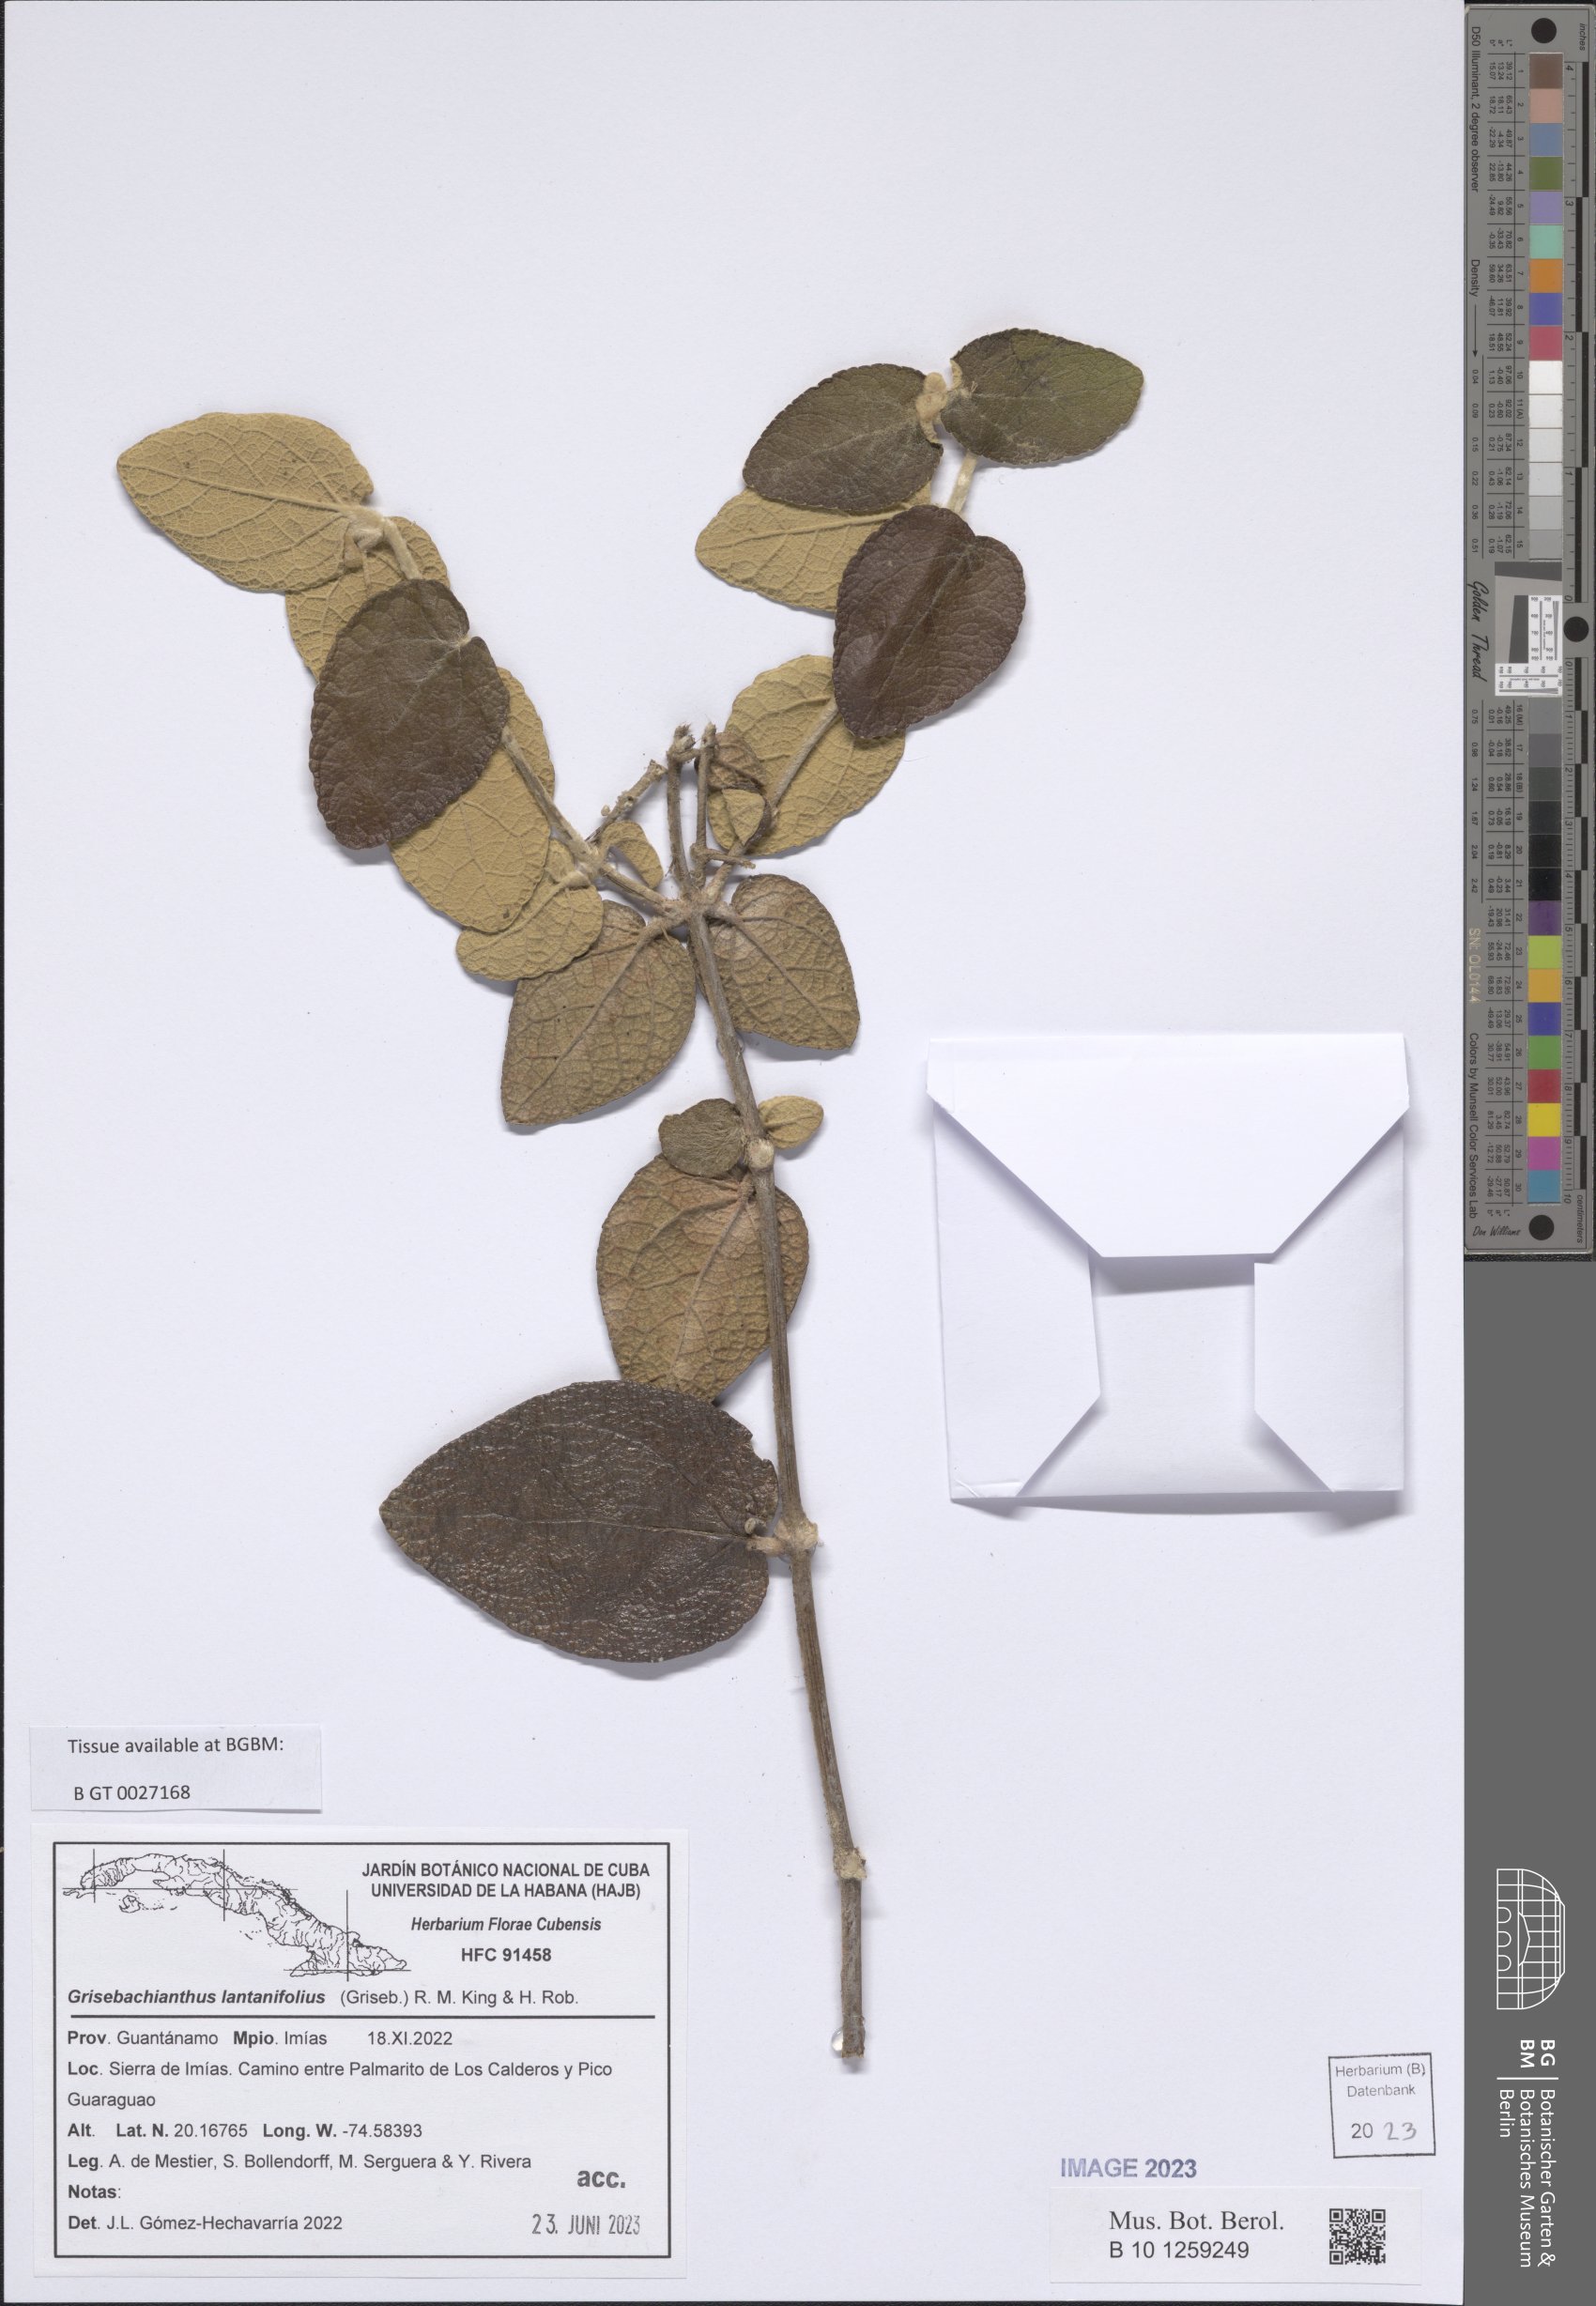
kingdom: Plantae
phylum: Tracheophyta
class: Magnoliopsida
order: Asterales
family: Asteraceae
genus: Grisebachianthus
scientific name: Grisebachianthus lantanifolius
